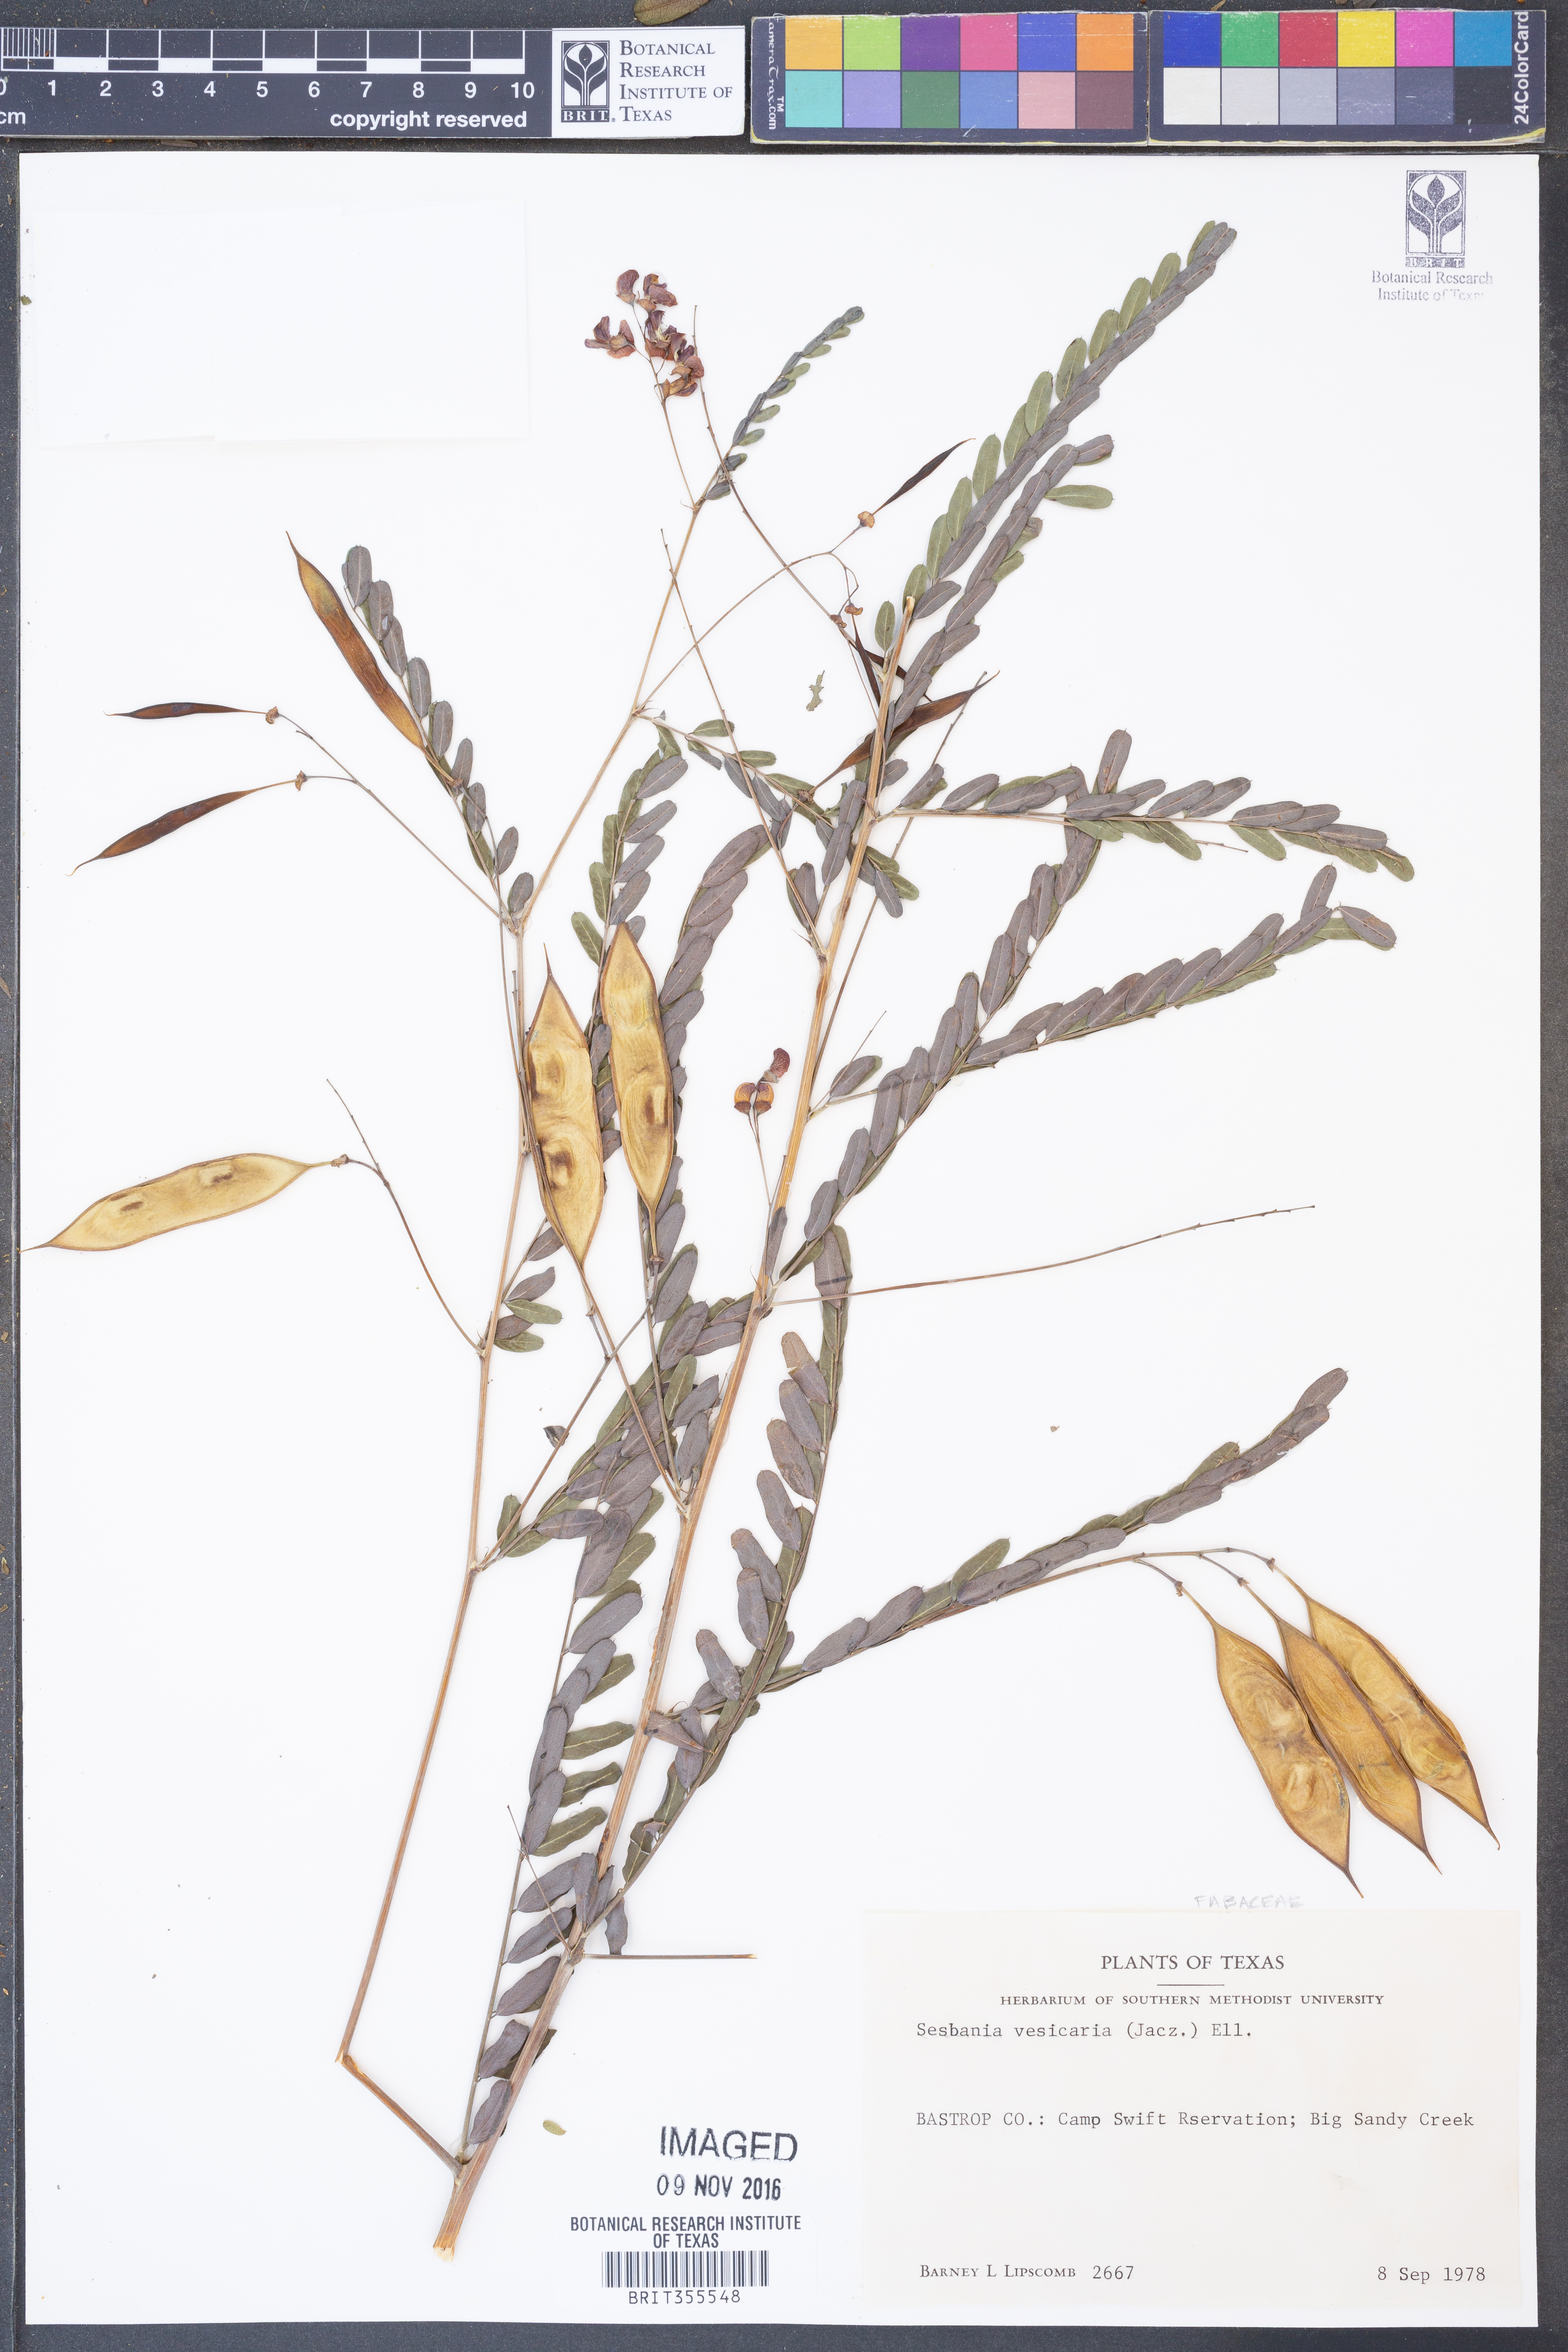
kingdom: Plantae
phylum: Tracheophyta
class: Magnoliopsida
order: Fabales
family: Fabaceae
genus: Sesbania
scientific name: Sesbania vesicaria
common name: Bagpod
